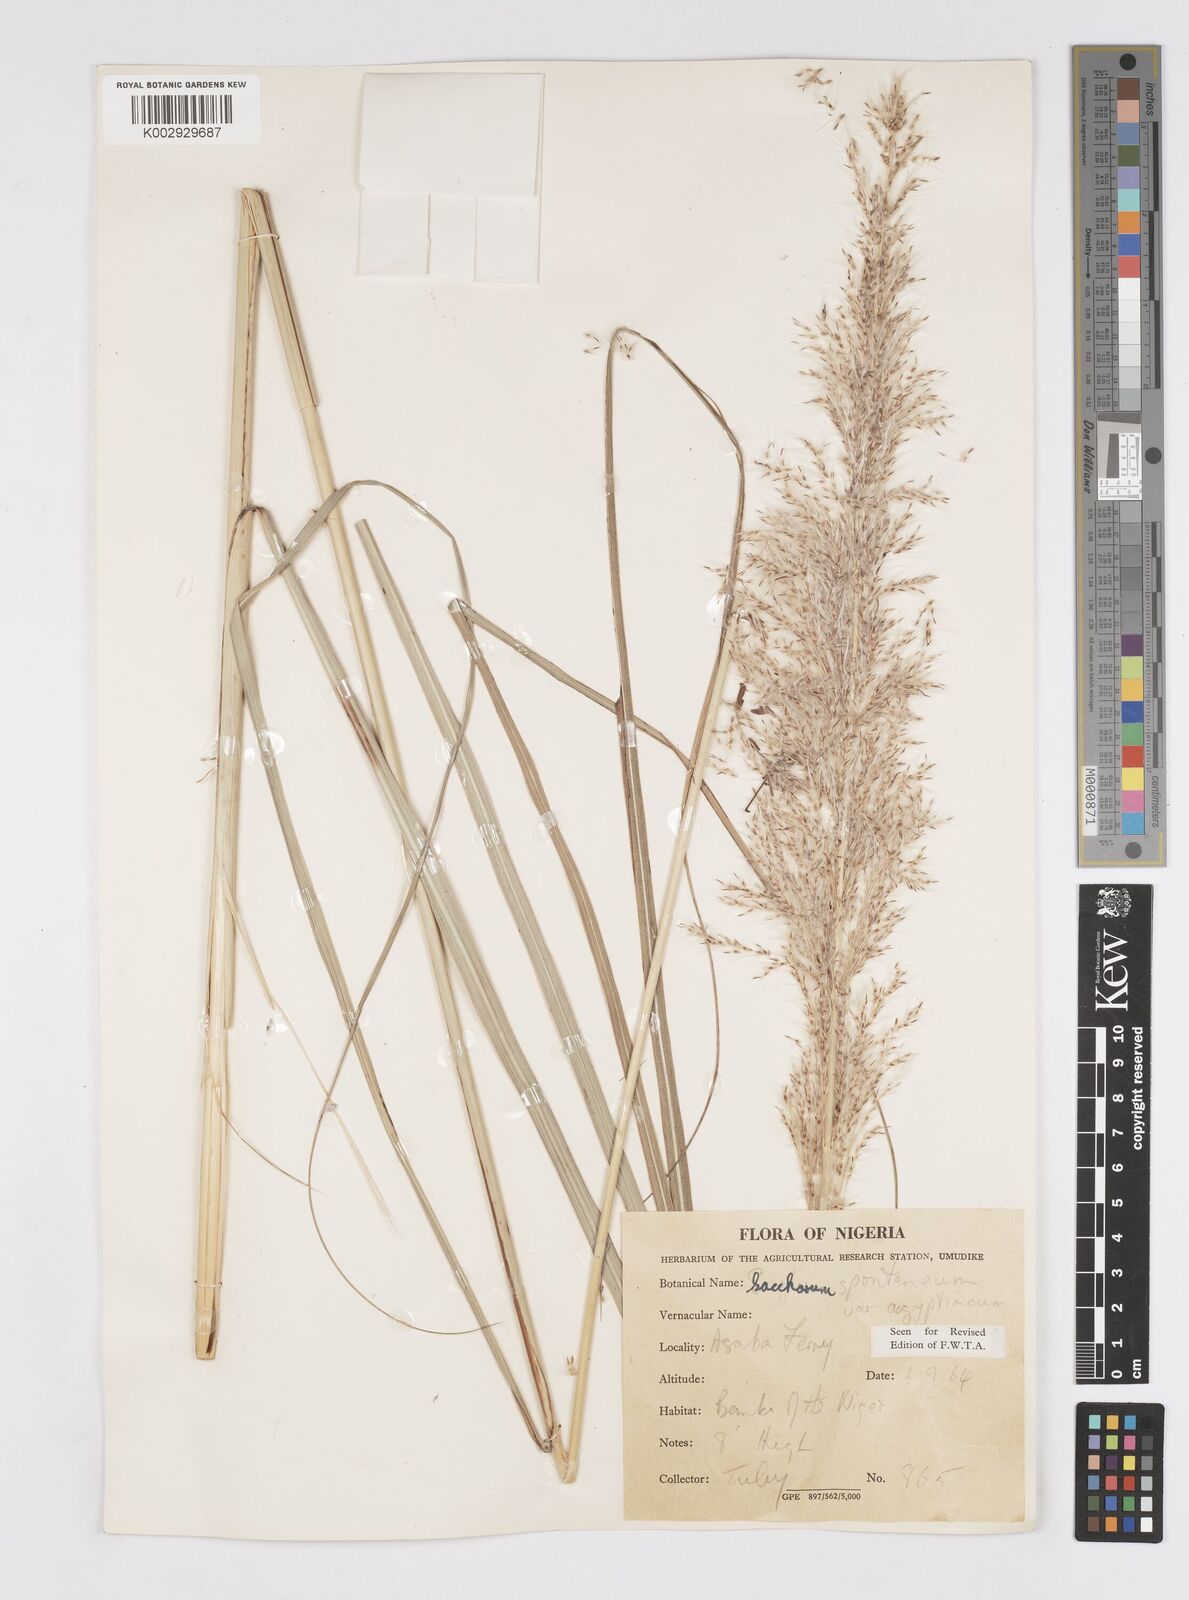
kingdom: Plantae
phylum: Tracheophyta
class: Liliopsida
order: Poales
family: Poaceae
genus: Saccharum
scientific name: Saccharum spontaneum
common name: Wild sugarcane
